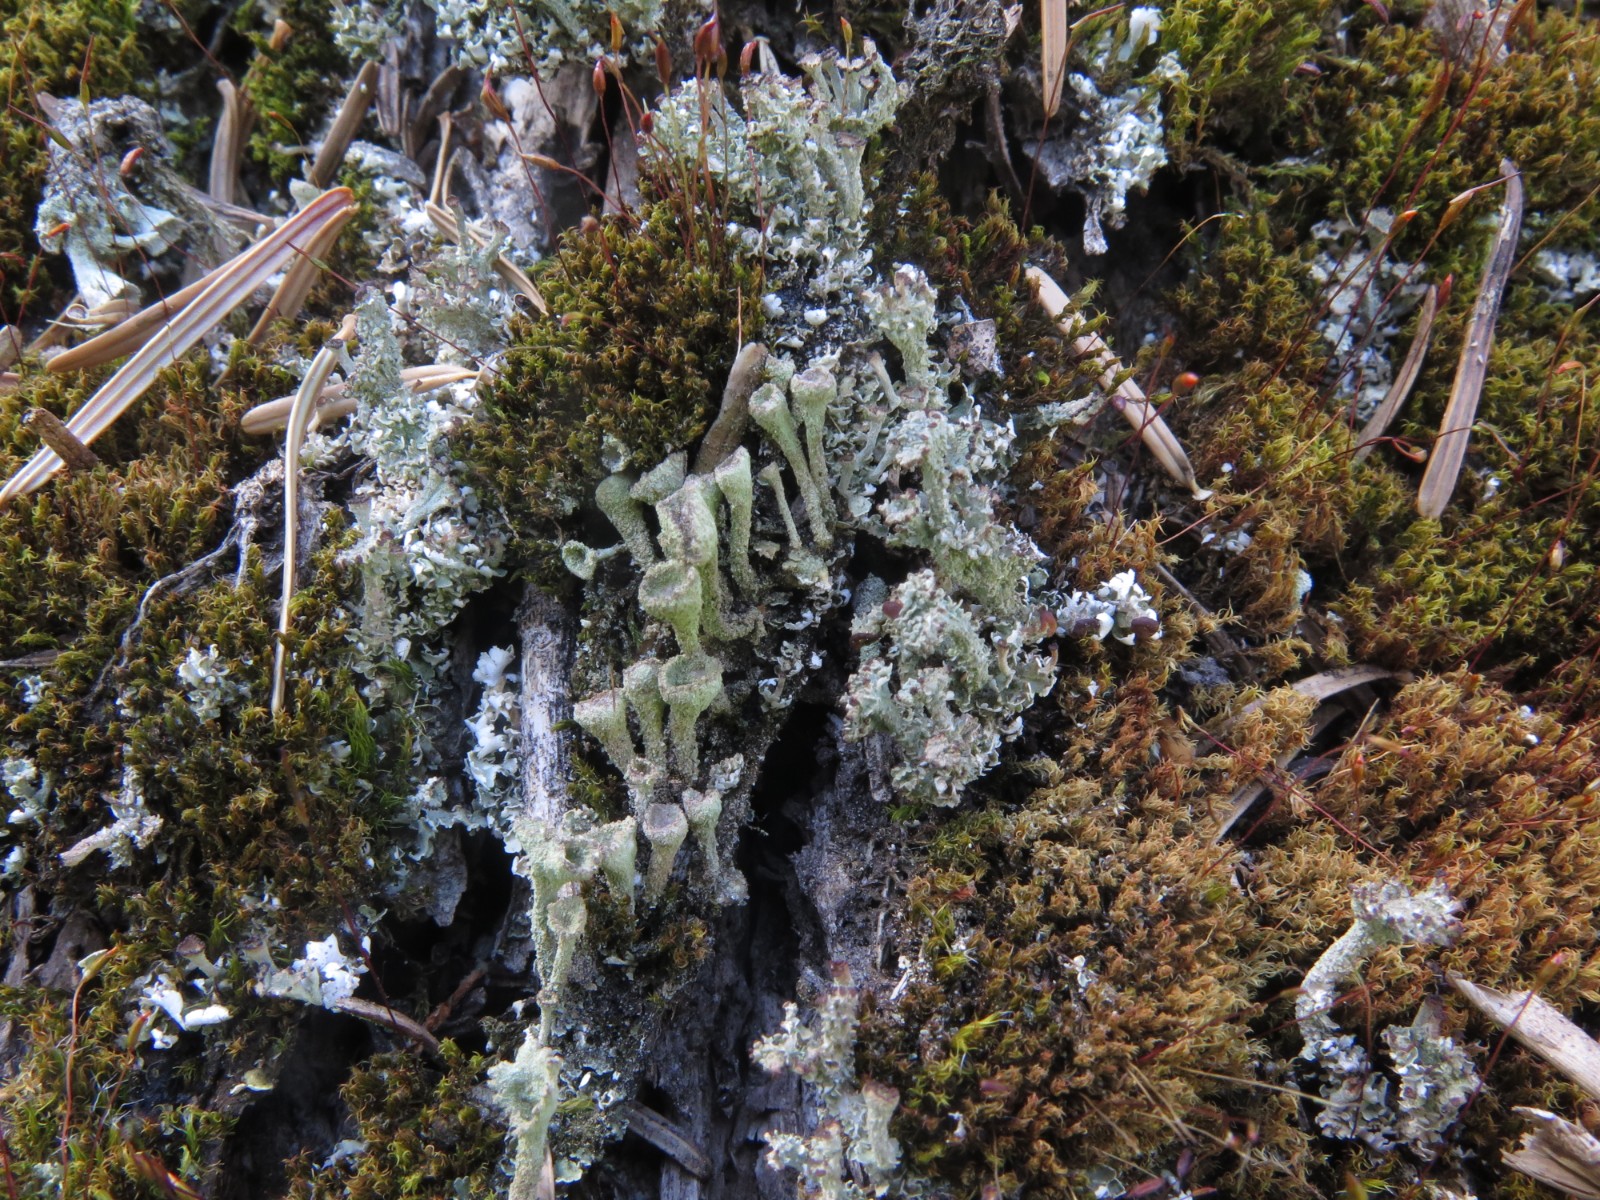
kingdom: Fungi
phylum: Ascomycota
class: Lecanoromycetes
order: Lecanorales
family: Cladoniaceae
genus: Cladonia
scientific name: Cladonia
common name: brungrøn bægerlav
